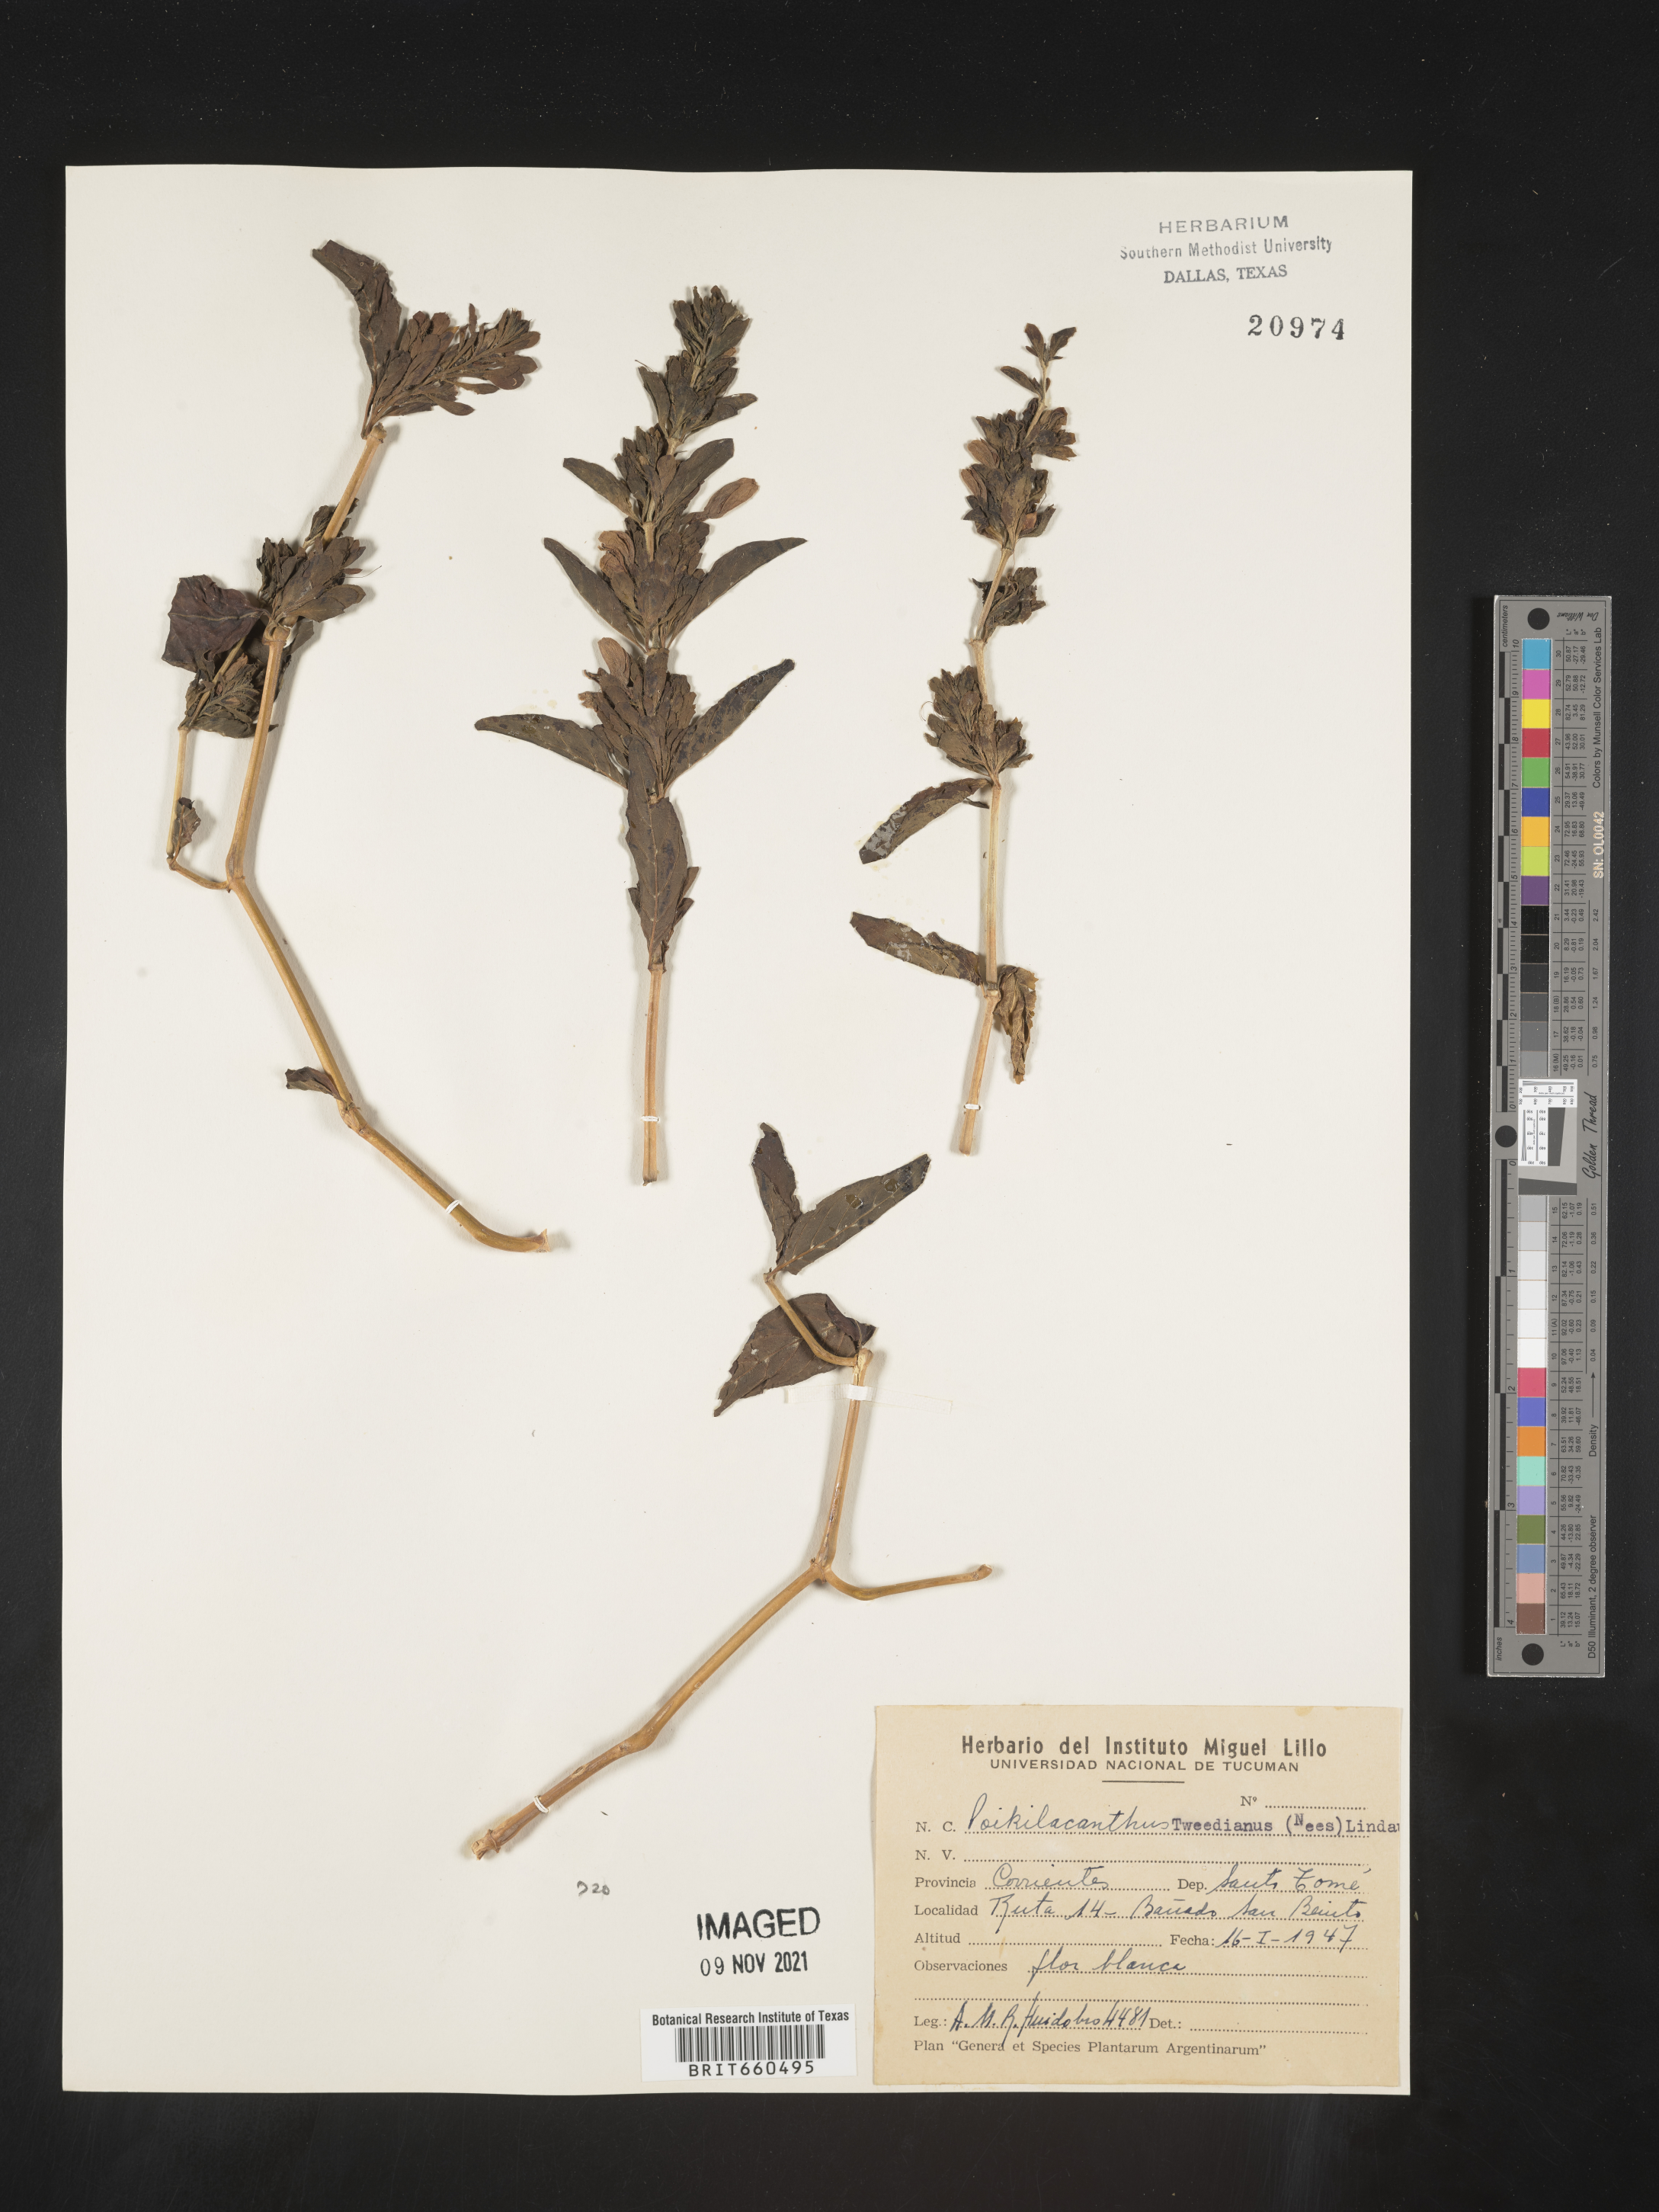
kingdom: Plantae
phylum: Tracheophyta
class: Magnoliopsida
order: Lamiales
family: Acanthaceae
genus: Poikilacanthus
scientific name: Poikilacanthus
